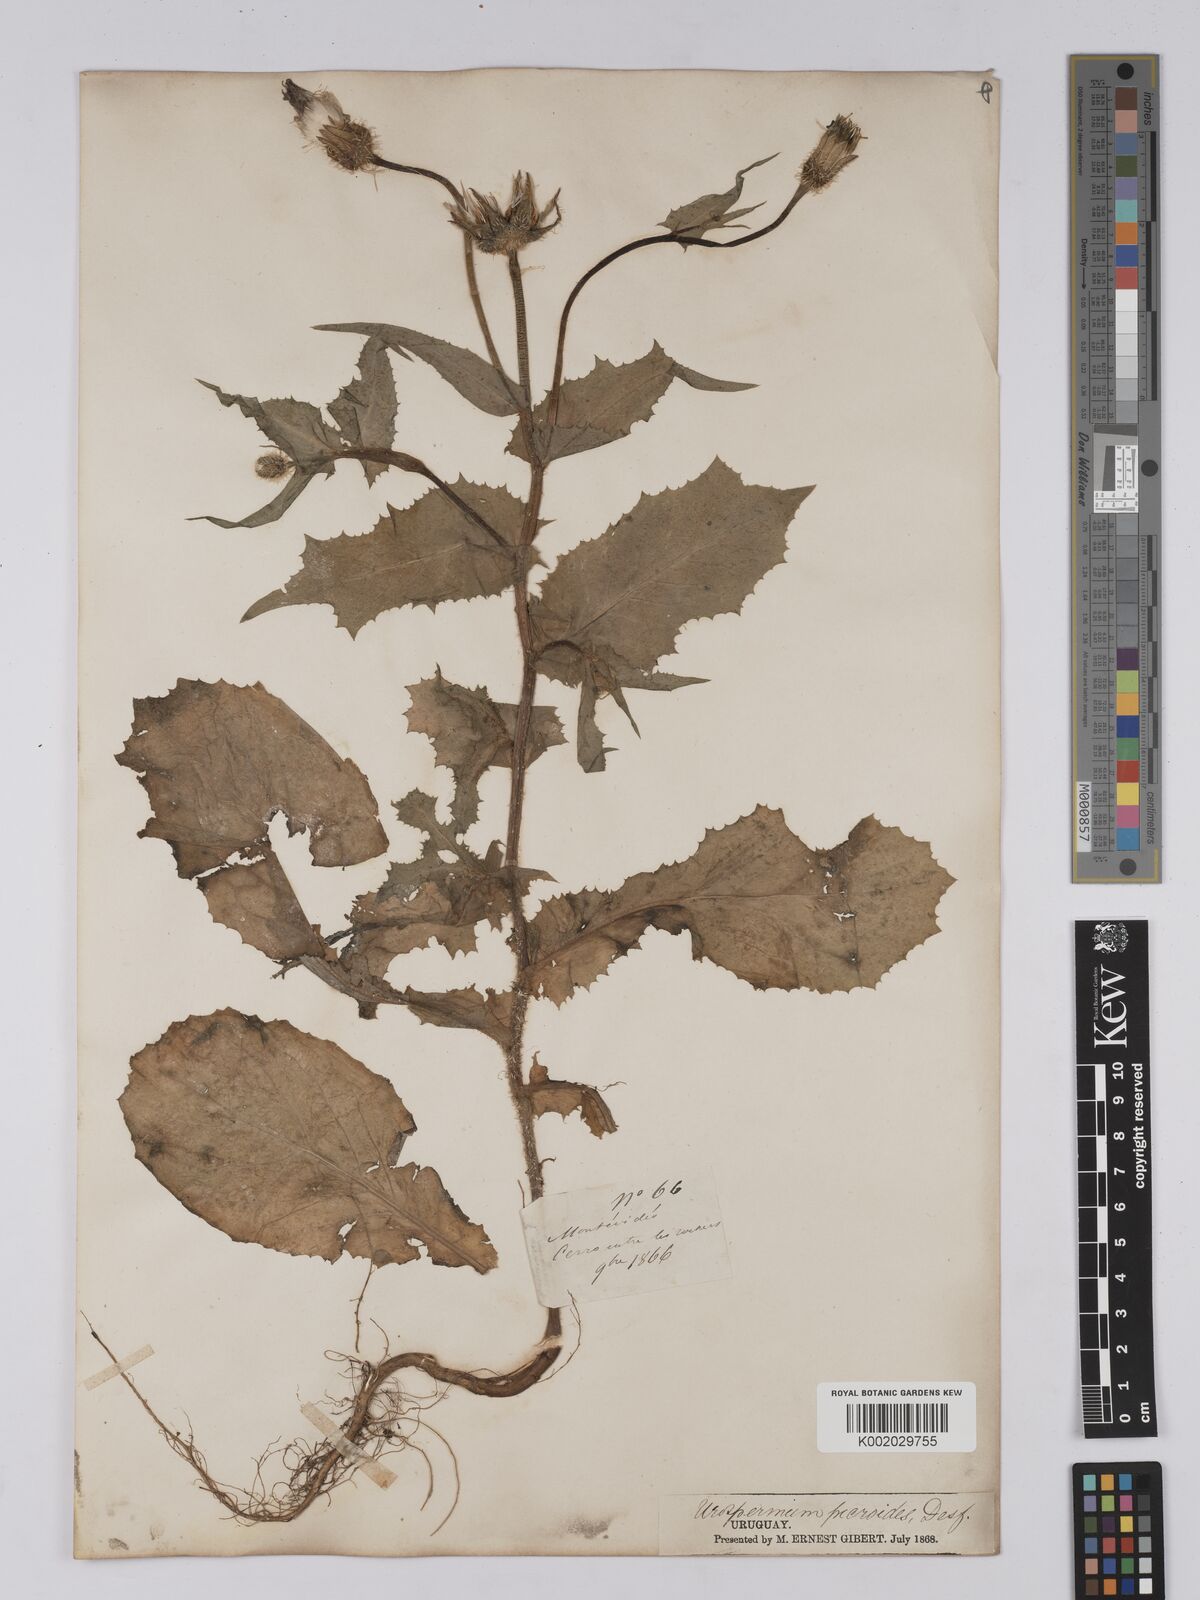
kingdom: Plantae
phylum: Tracheophyta
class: Magnoliopsida
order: Asterales
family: Asteraceae
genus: Urospermum
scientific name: Urospermum picroides
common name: False hawkbit
